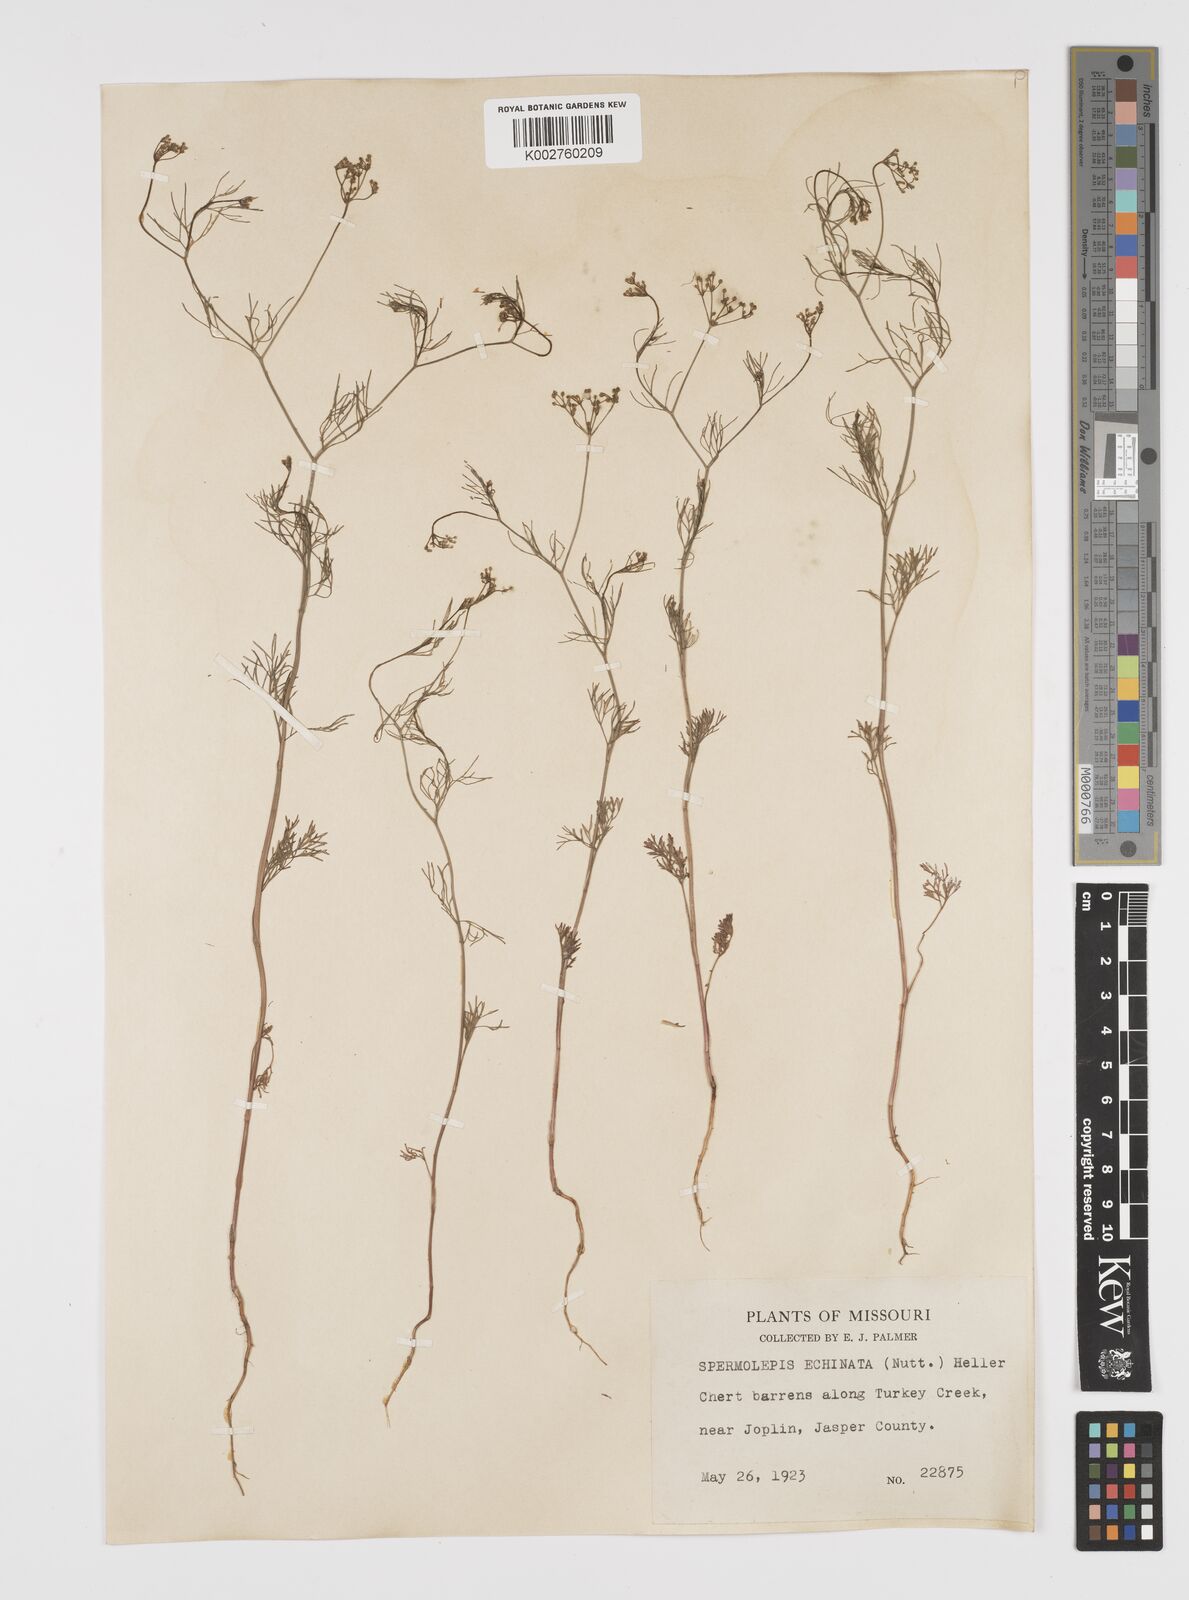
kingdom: Plantae
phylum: Tracheophyta
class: Magnoliopsida
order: Apiales
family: Apiaceae
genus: Spermolepis
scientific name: Spermolepis echinata
